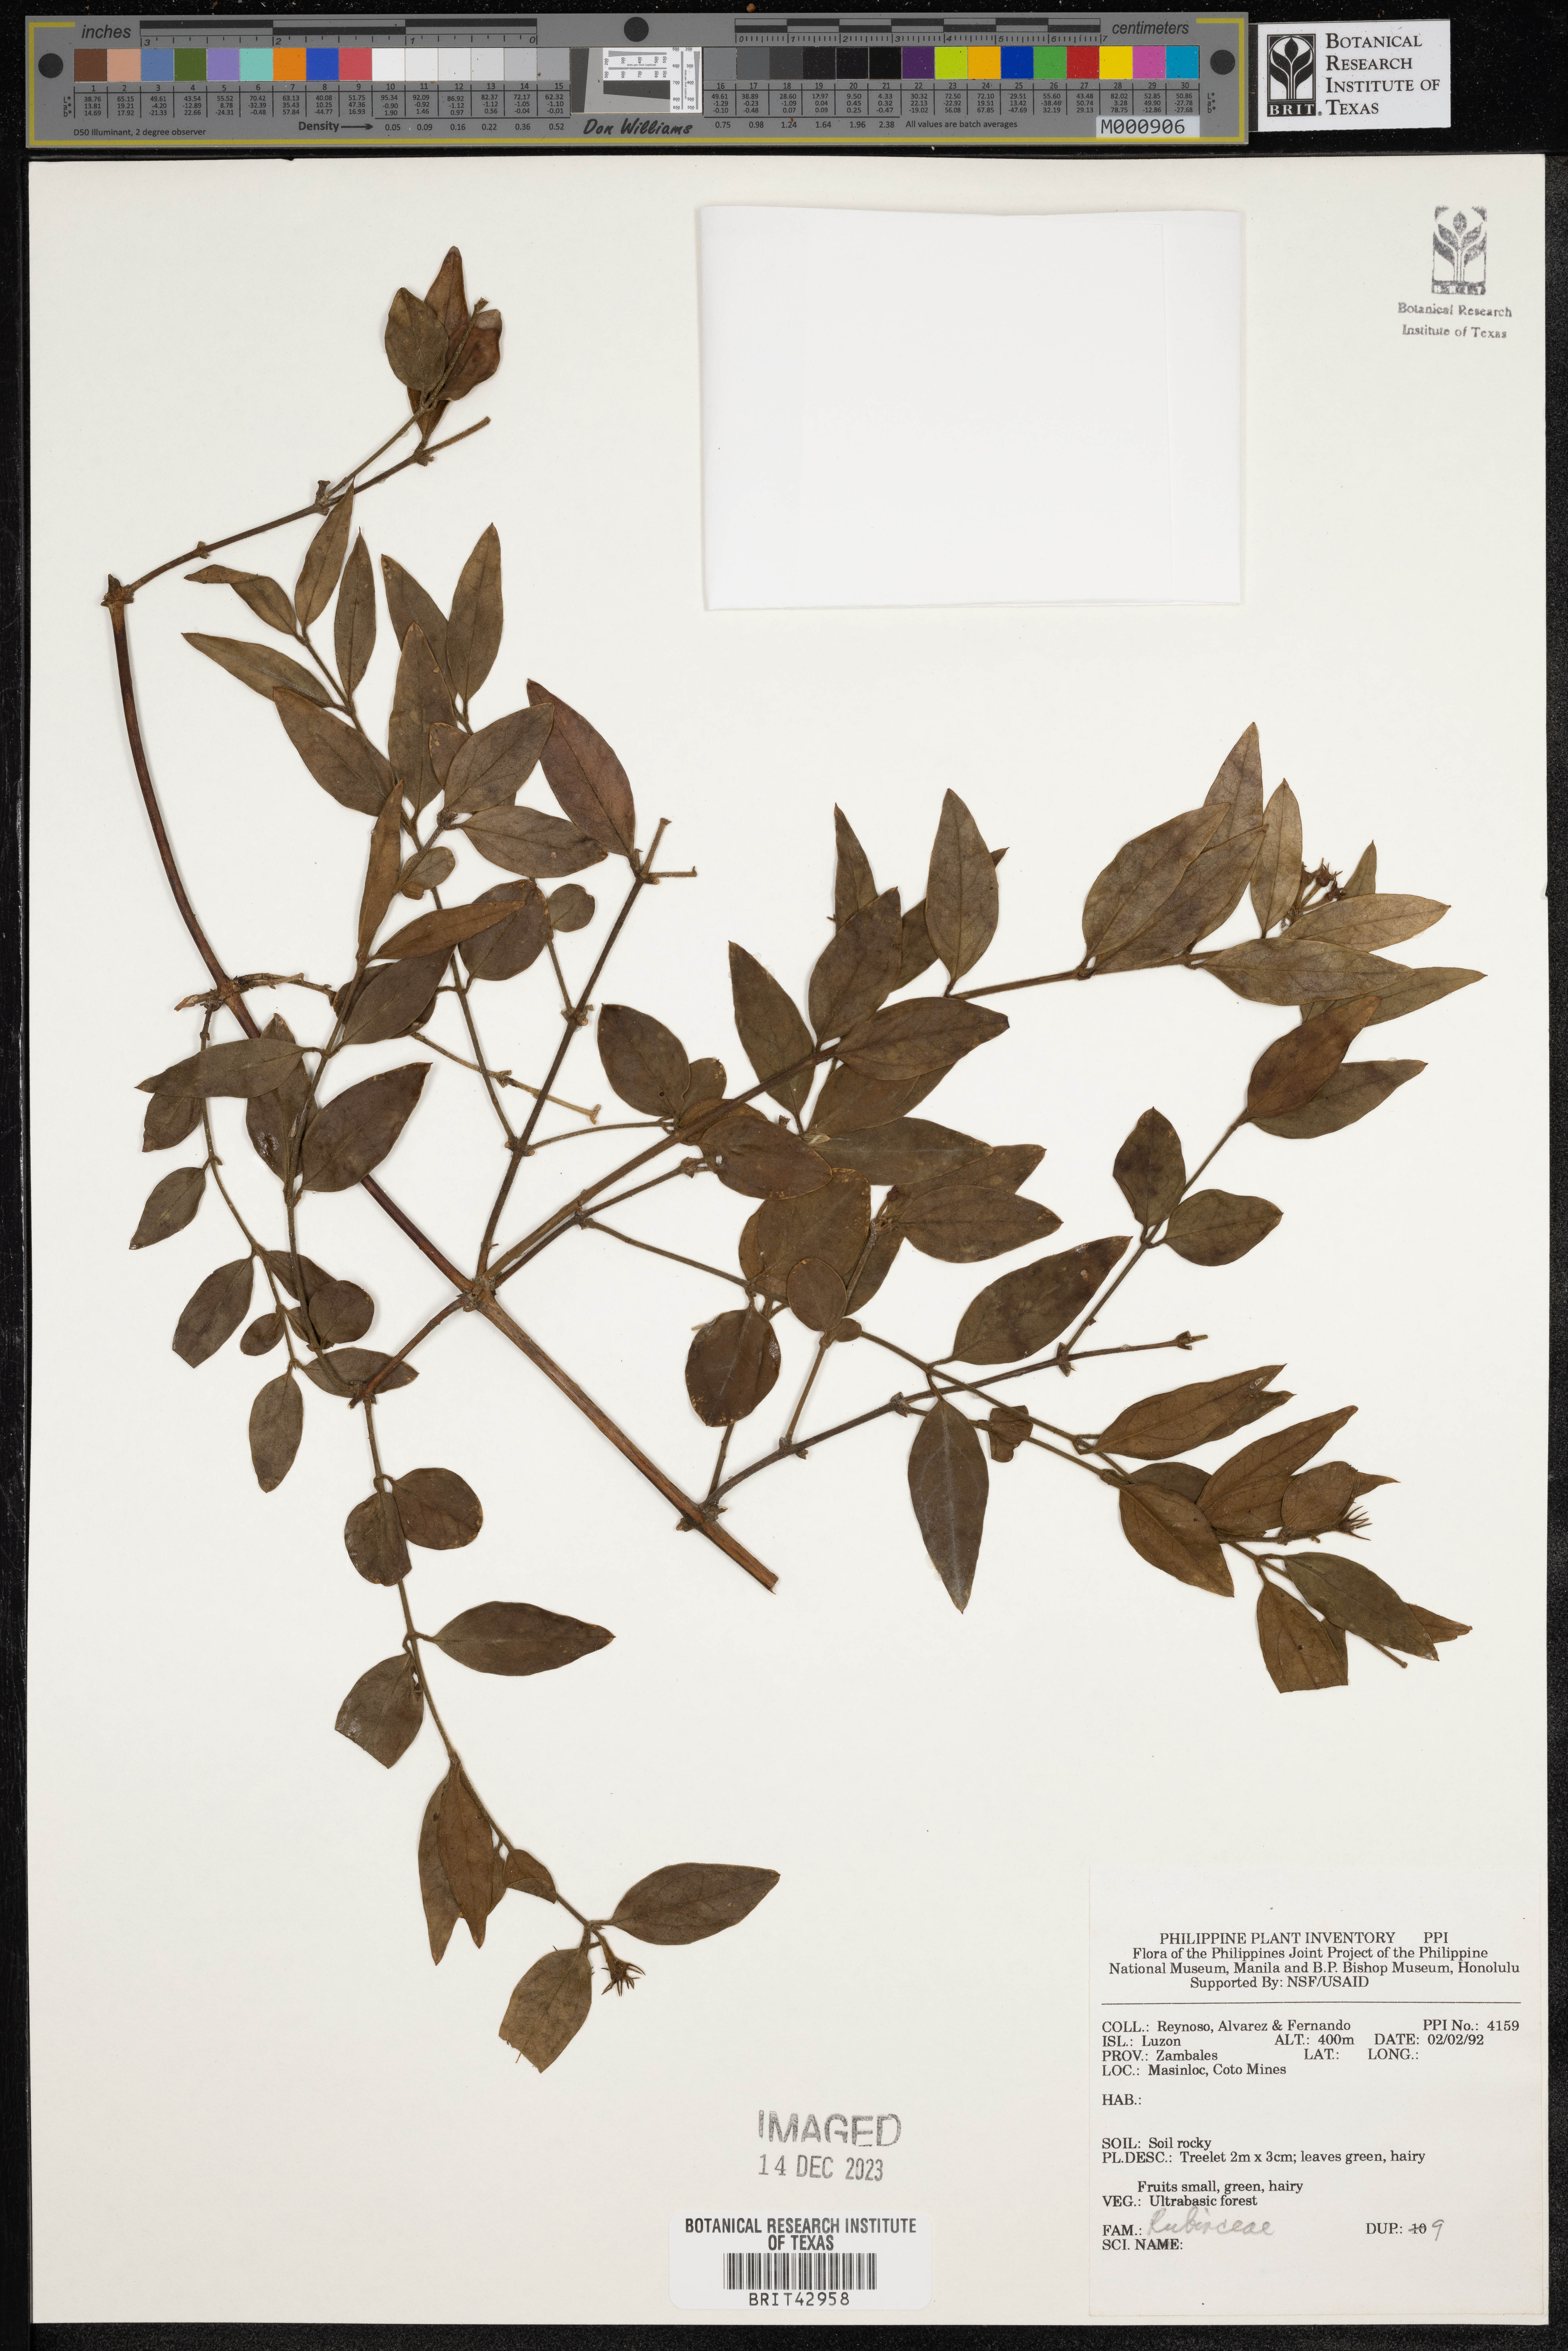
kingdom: Plantae
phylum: Tracheophyta
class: Magnoliopsida
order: Gentianales
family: Rubiaceae
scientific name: Rubiaceae
